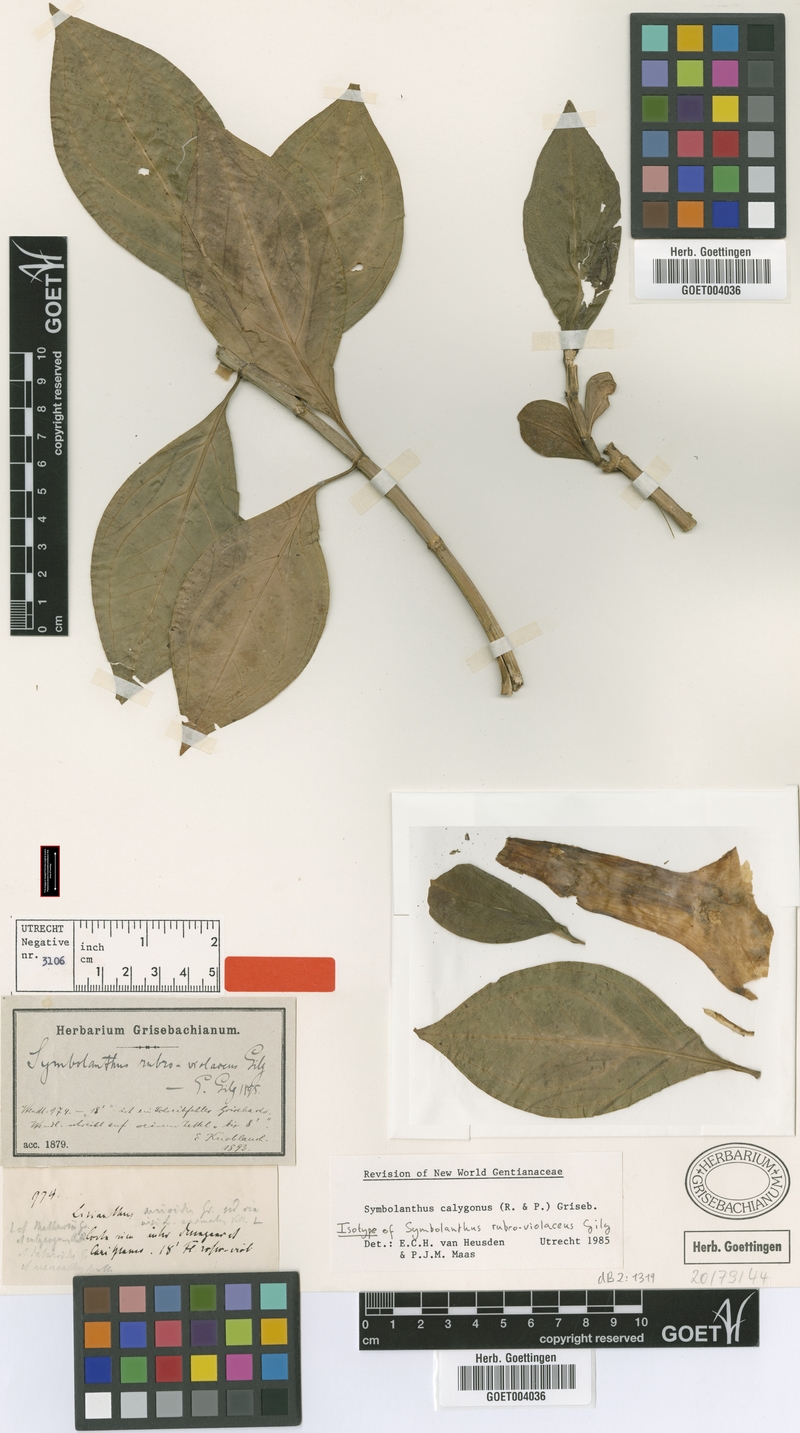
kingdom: Plantae
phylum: Tracheophyta
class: Magnoliopsida
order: Gentianales
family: Gentianaceae
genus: Symbolanthus
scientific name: Symbolanthus calygonus
